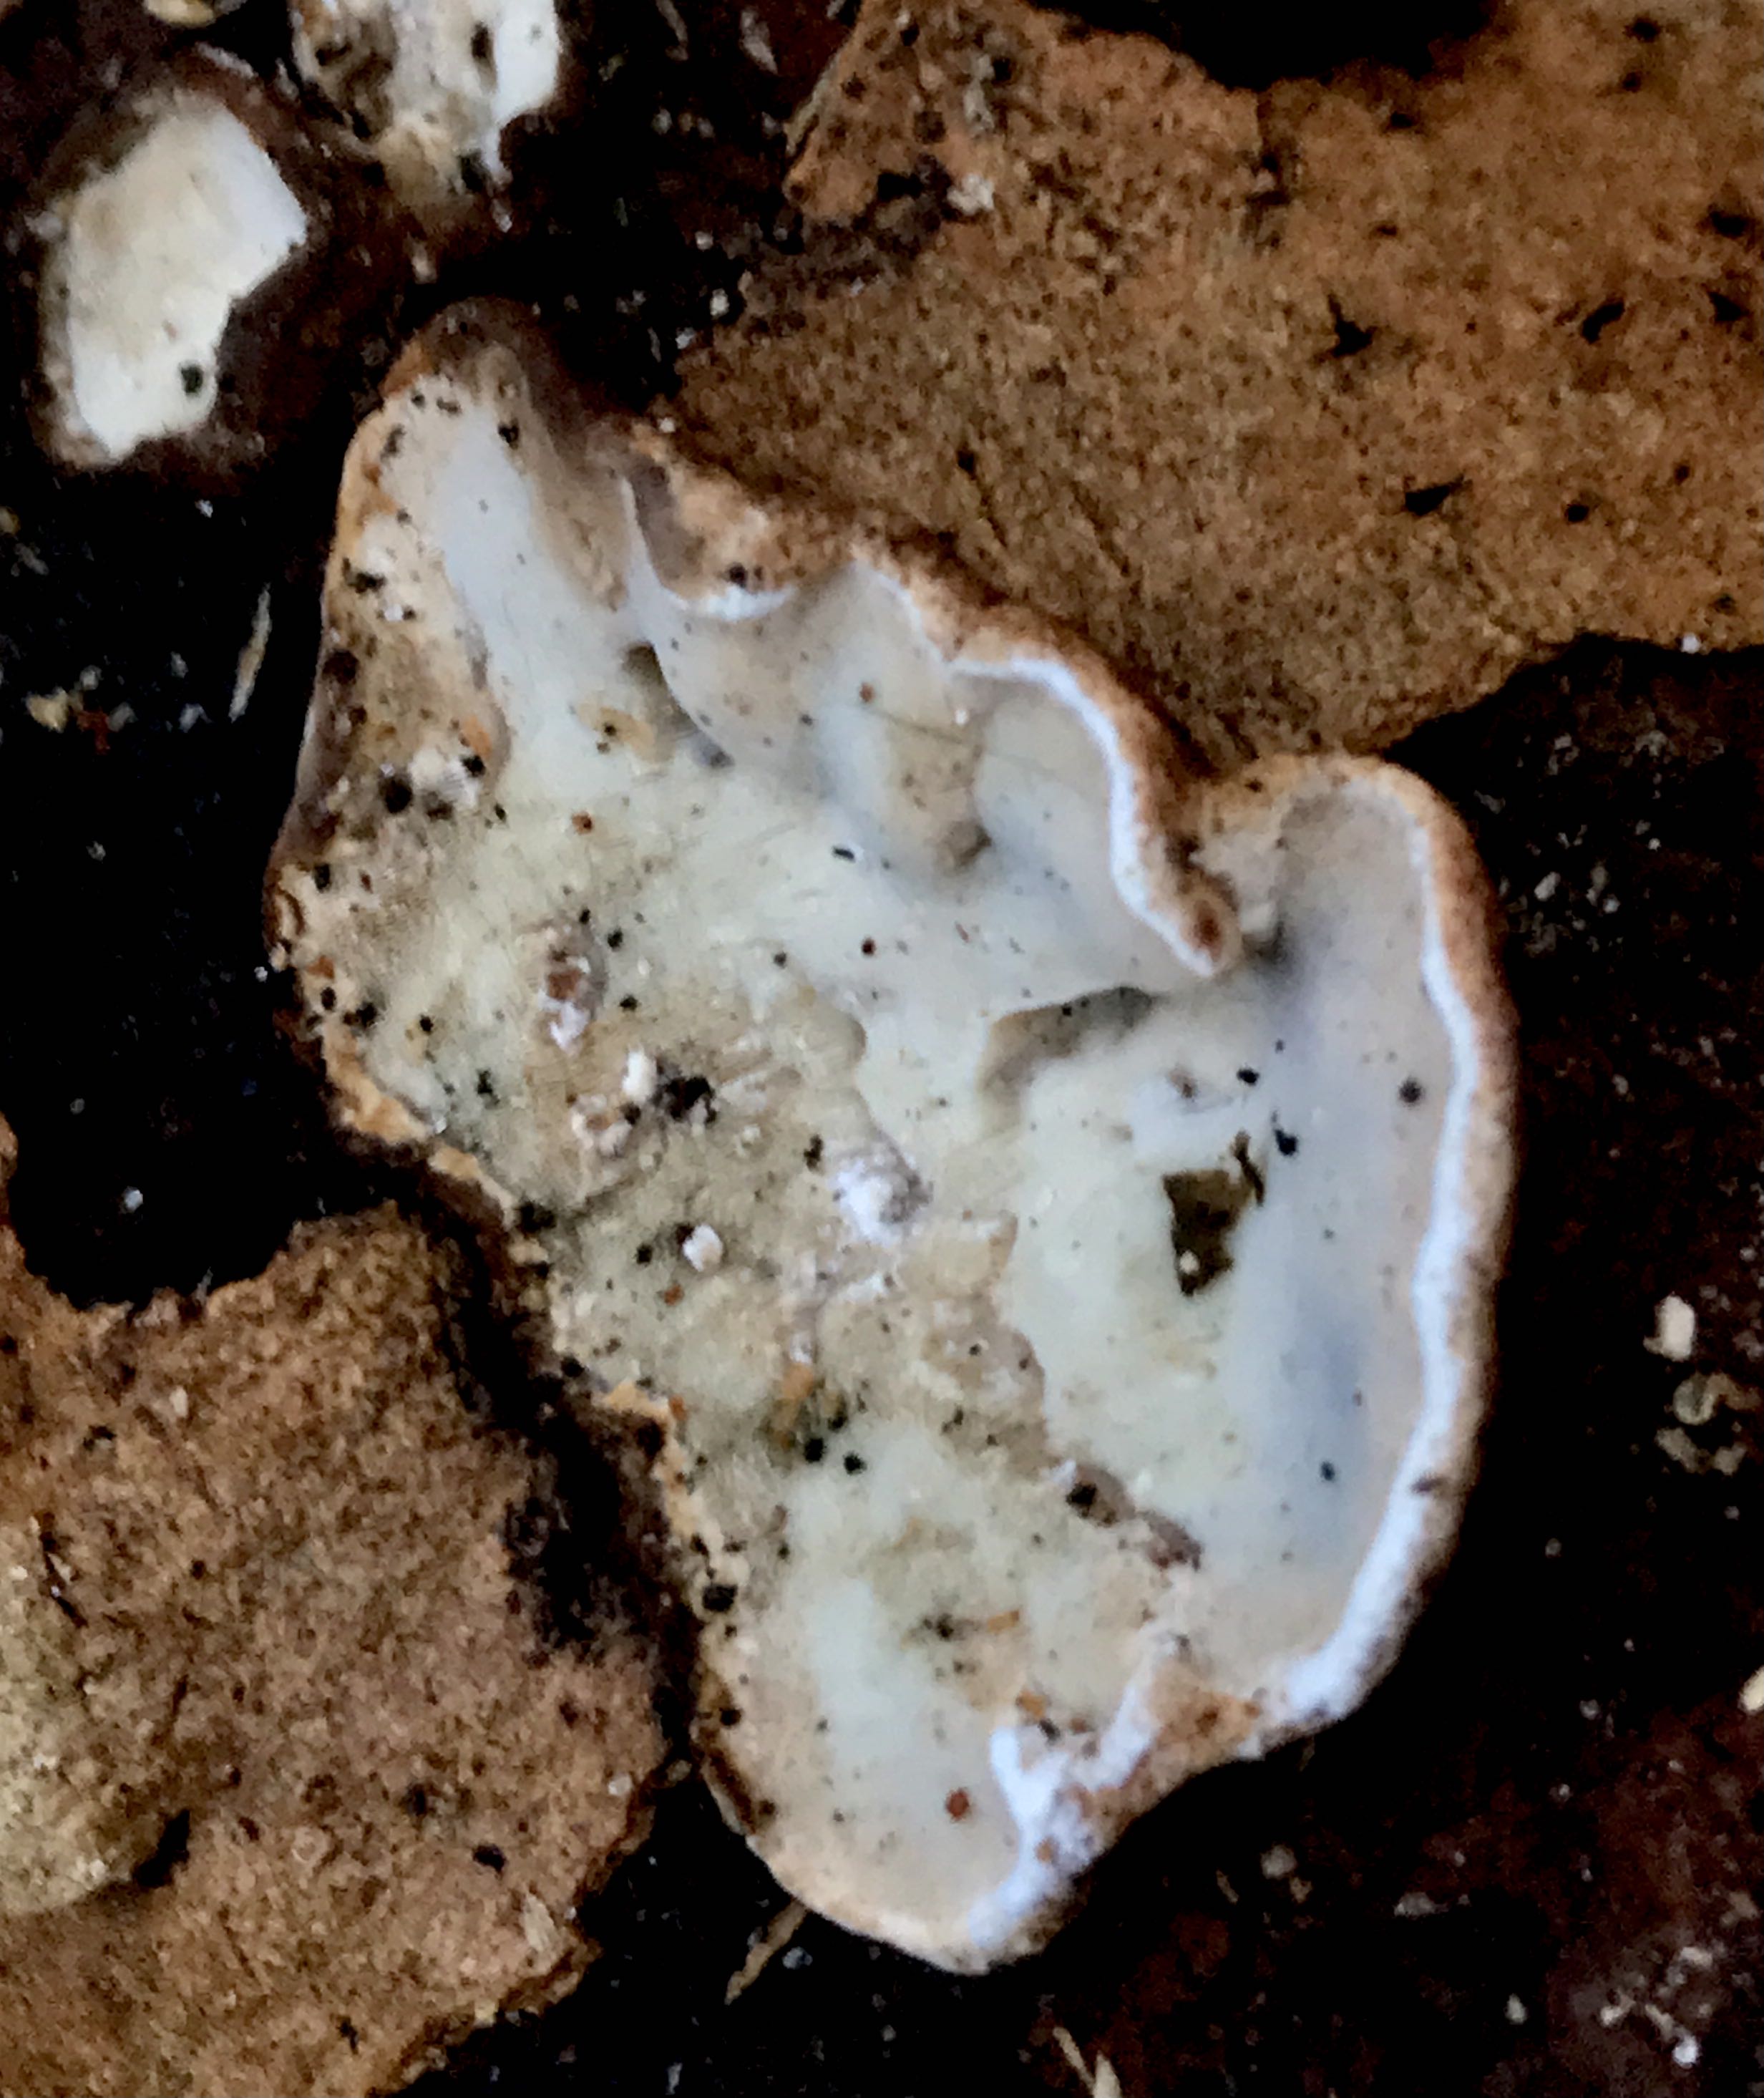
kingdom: Fungi
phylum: Basidiomycota
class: Agaricomycetes
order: Polyporales
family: Incrustoporiaceae
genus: Skeletocutis
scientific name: Skeletocutis nemoralis
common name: stor krystalporesvamp
